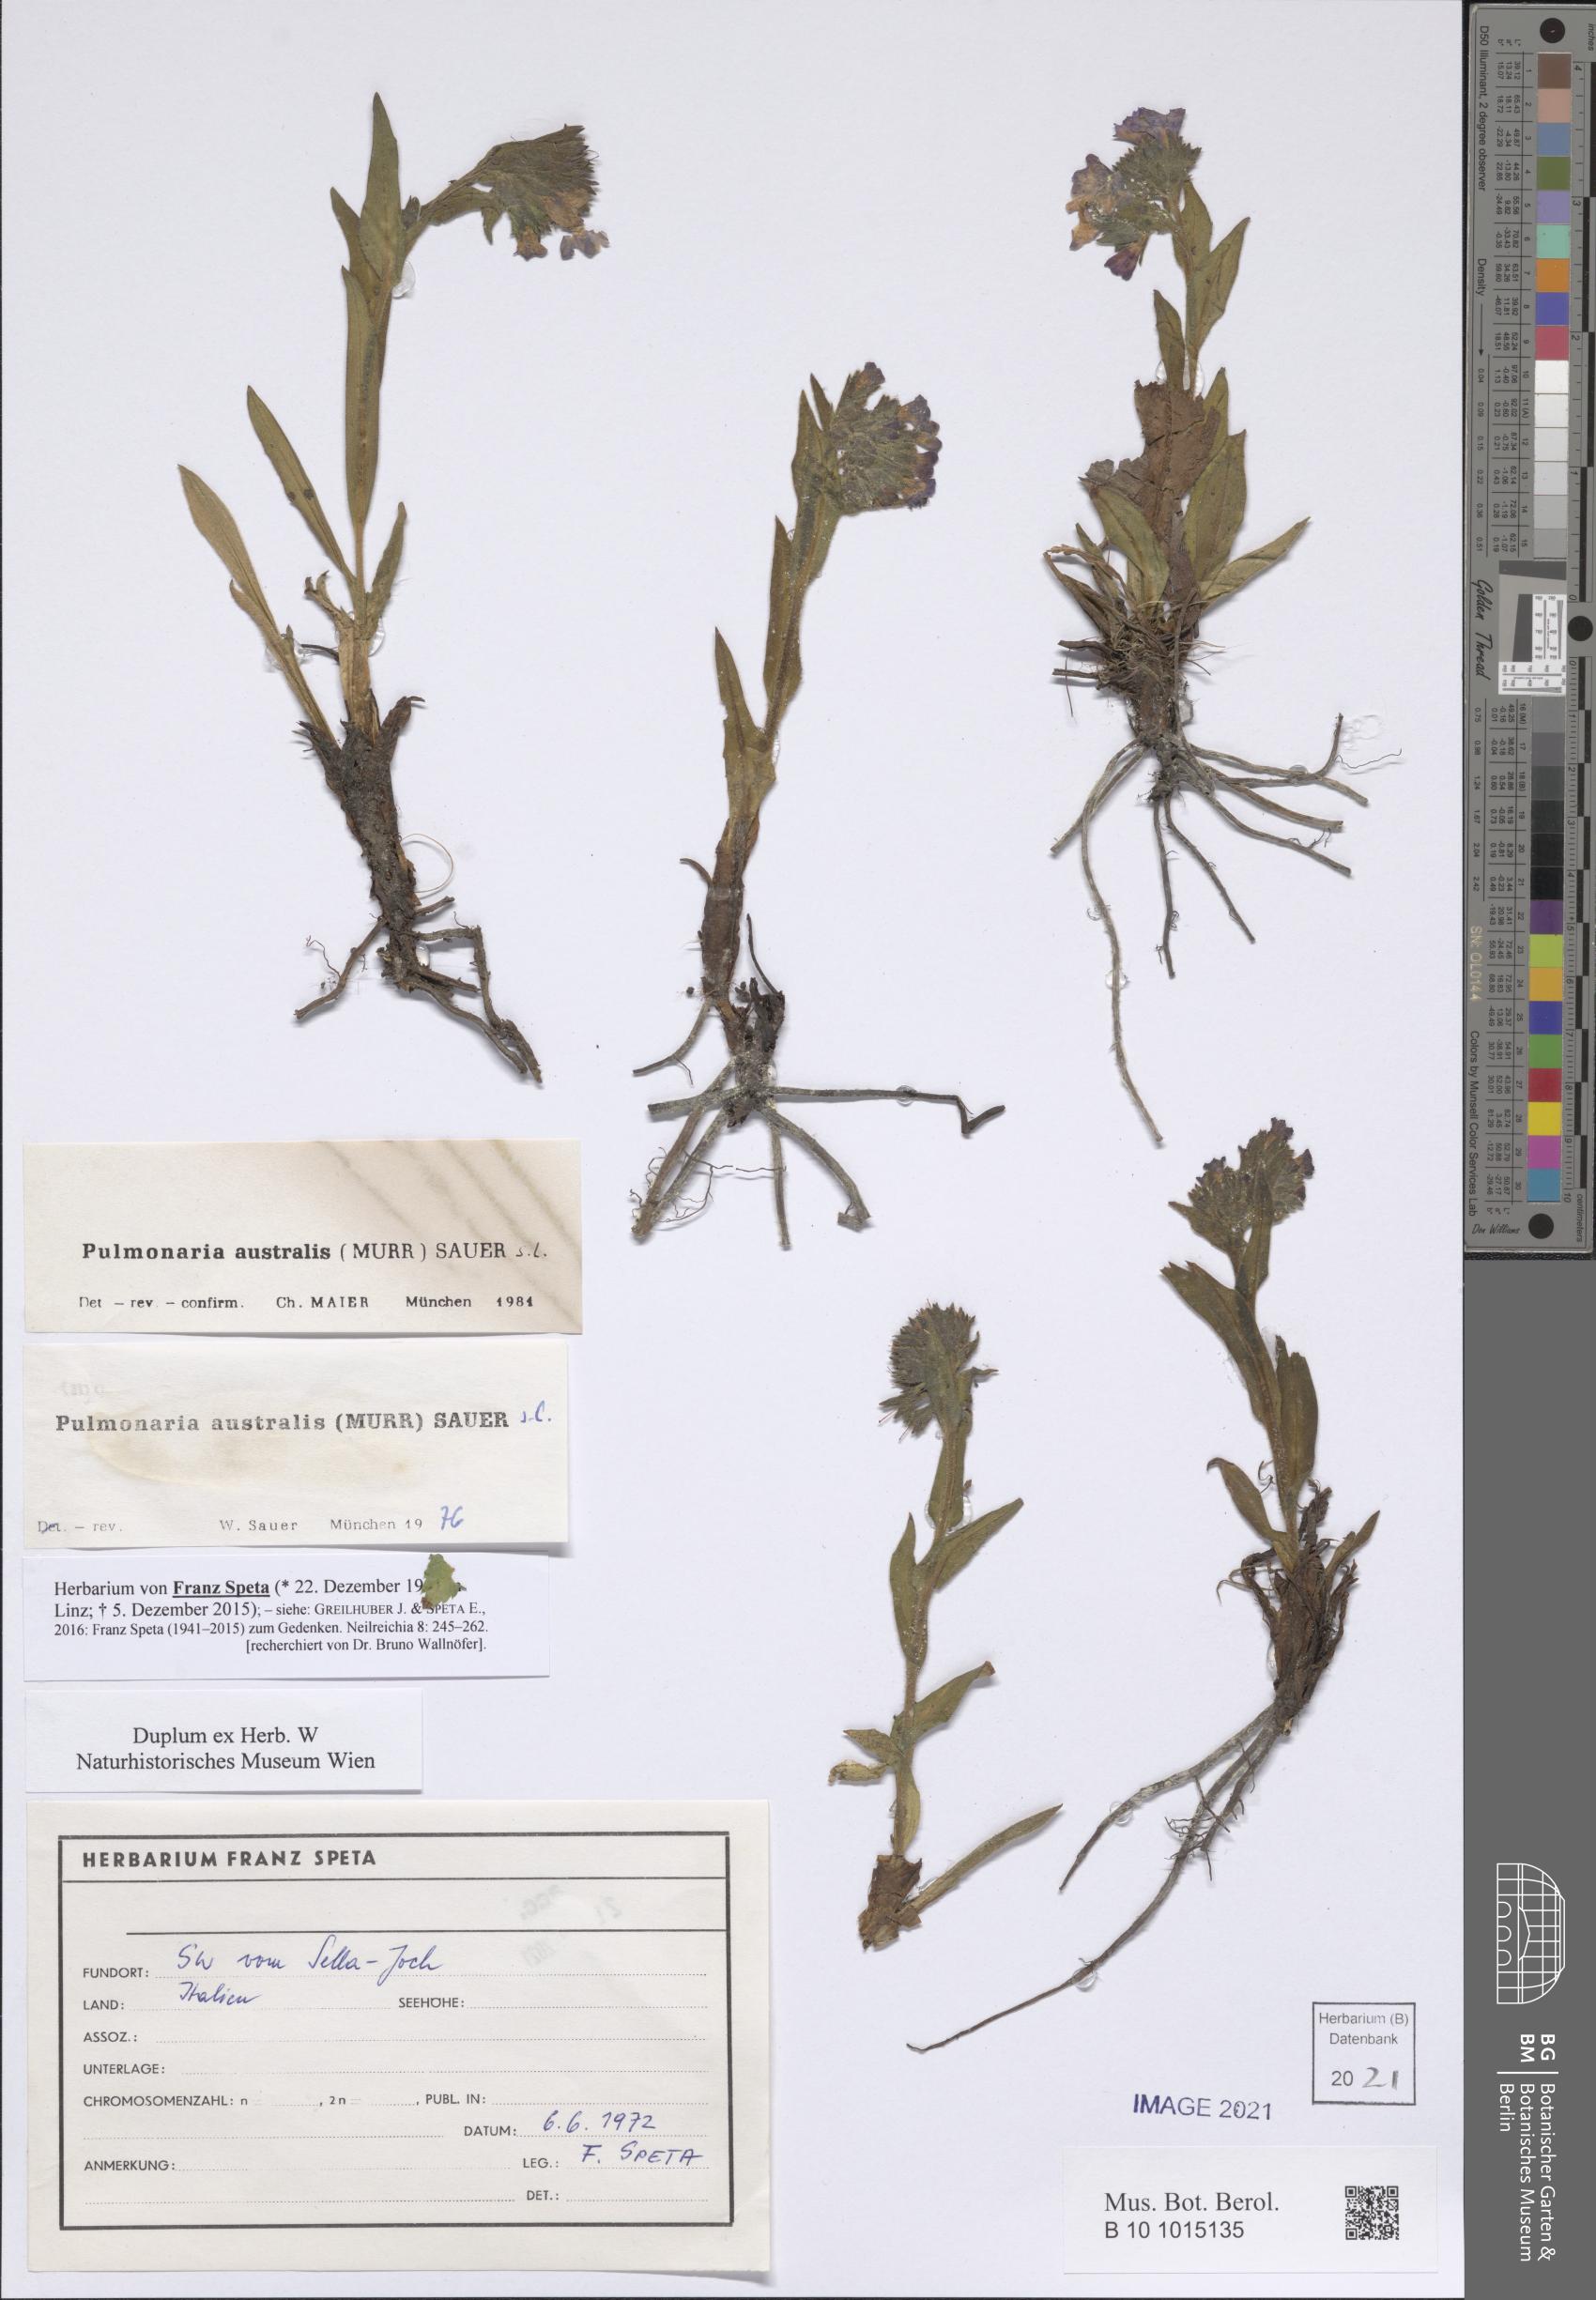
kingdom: Plantae
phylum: Tracheophyta
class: Magnoliopsida
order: Boraginales
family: Boraginaceae
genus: Pulmonaria
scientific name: Pulmonaria australis
